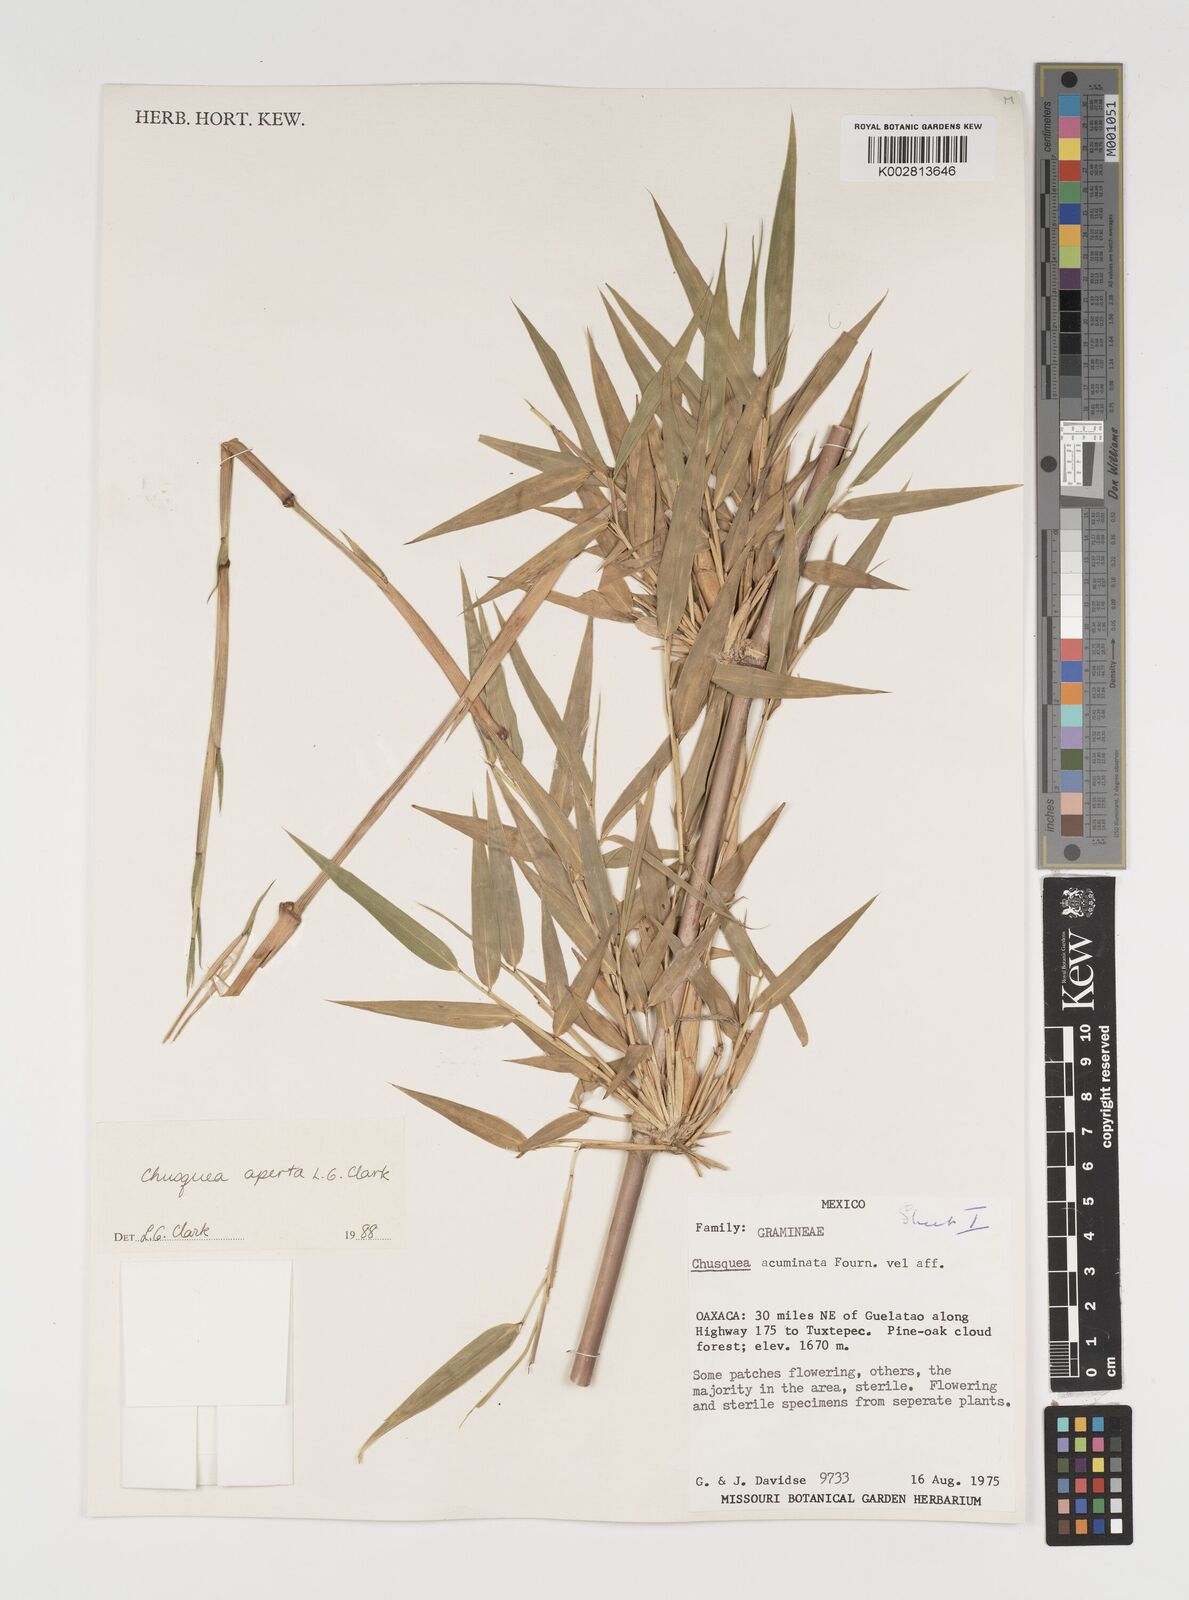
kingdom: Plantae
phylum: Tracheophyta
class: Liliopsida
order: Poales
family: Poaceae
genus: Chusquea
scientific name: Chusquea aperta
